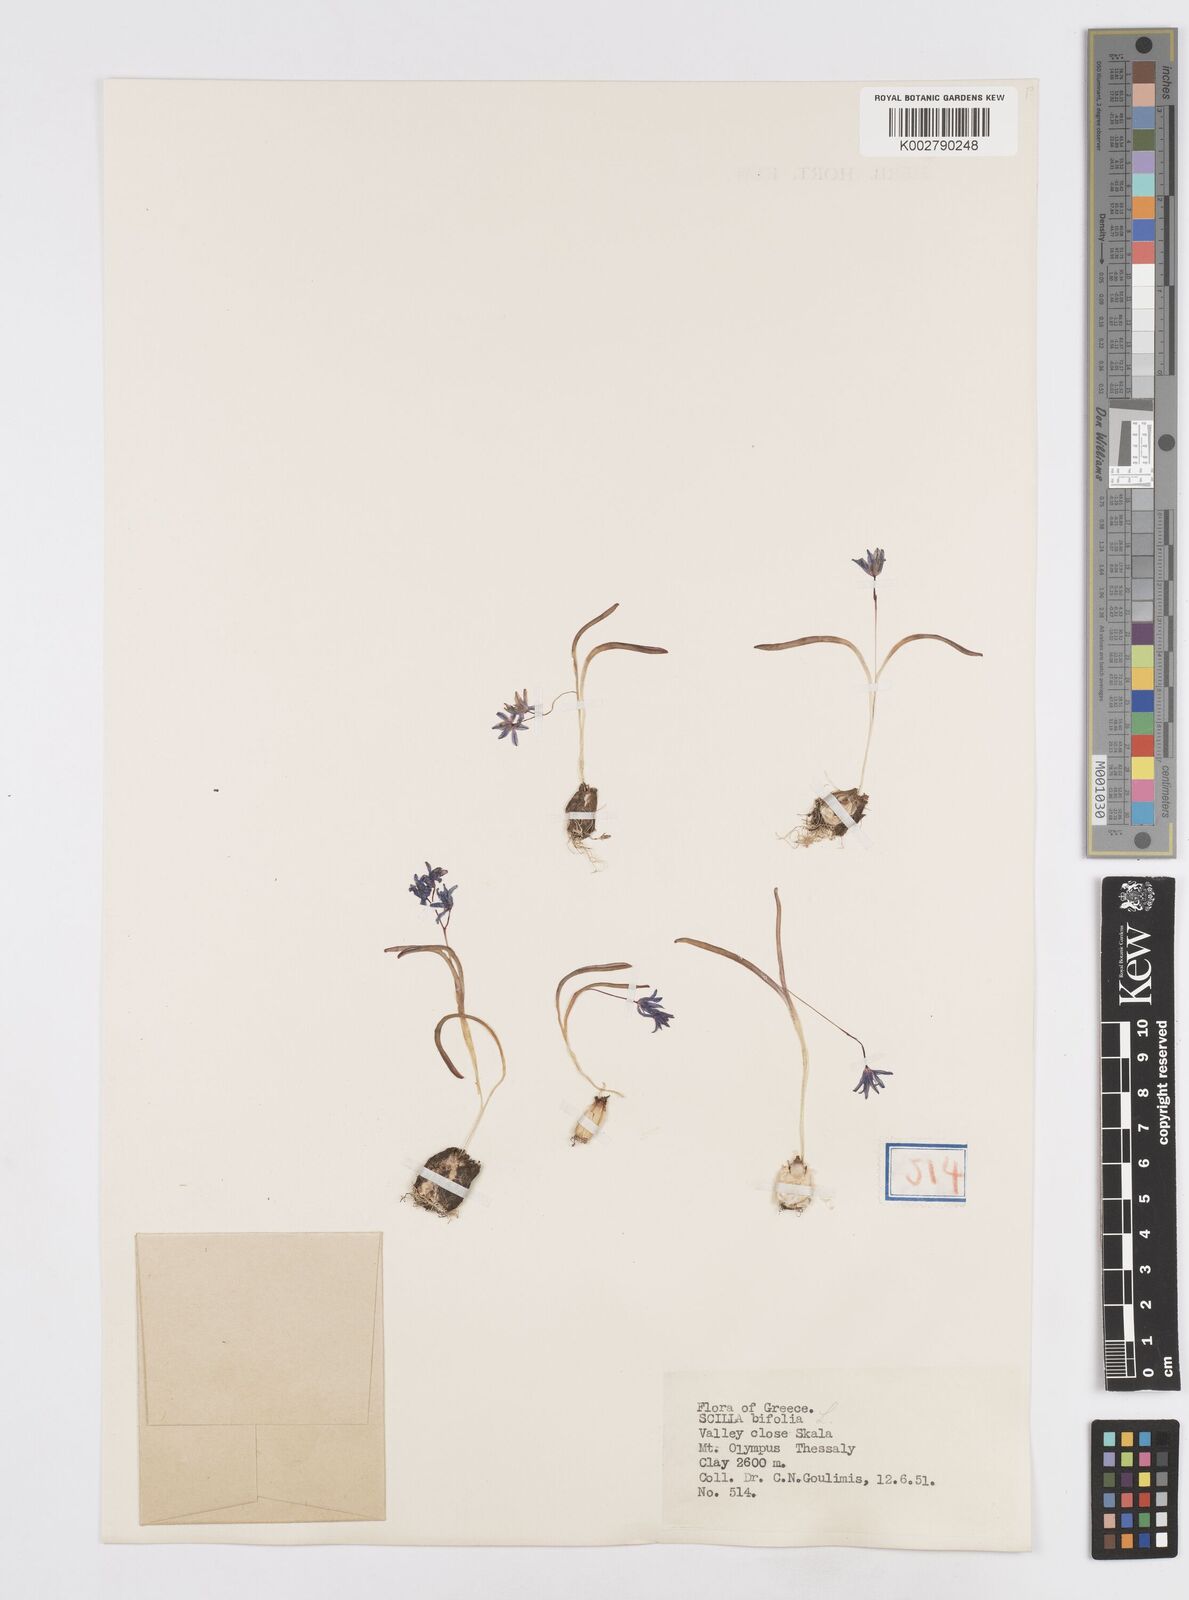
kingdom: Plantae
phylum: Tracheophyta
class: Liliopsida
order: Asparagales
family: Asparagaceae
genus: Scilla
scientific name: Scilla bifolia
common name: Alpine squill
